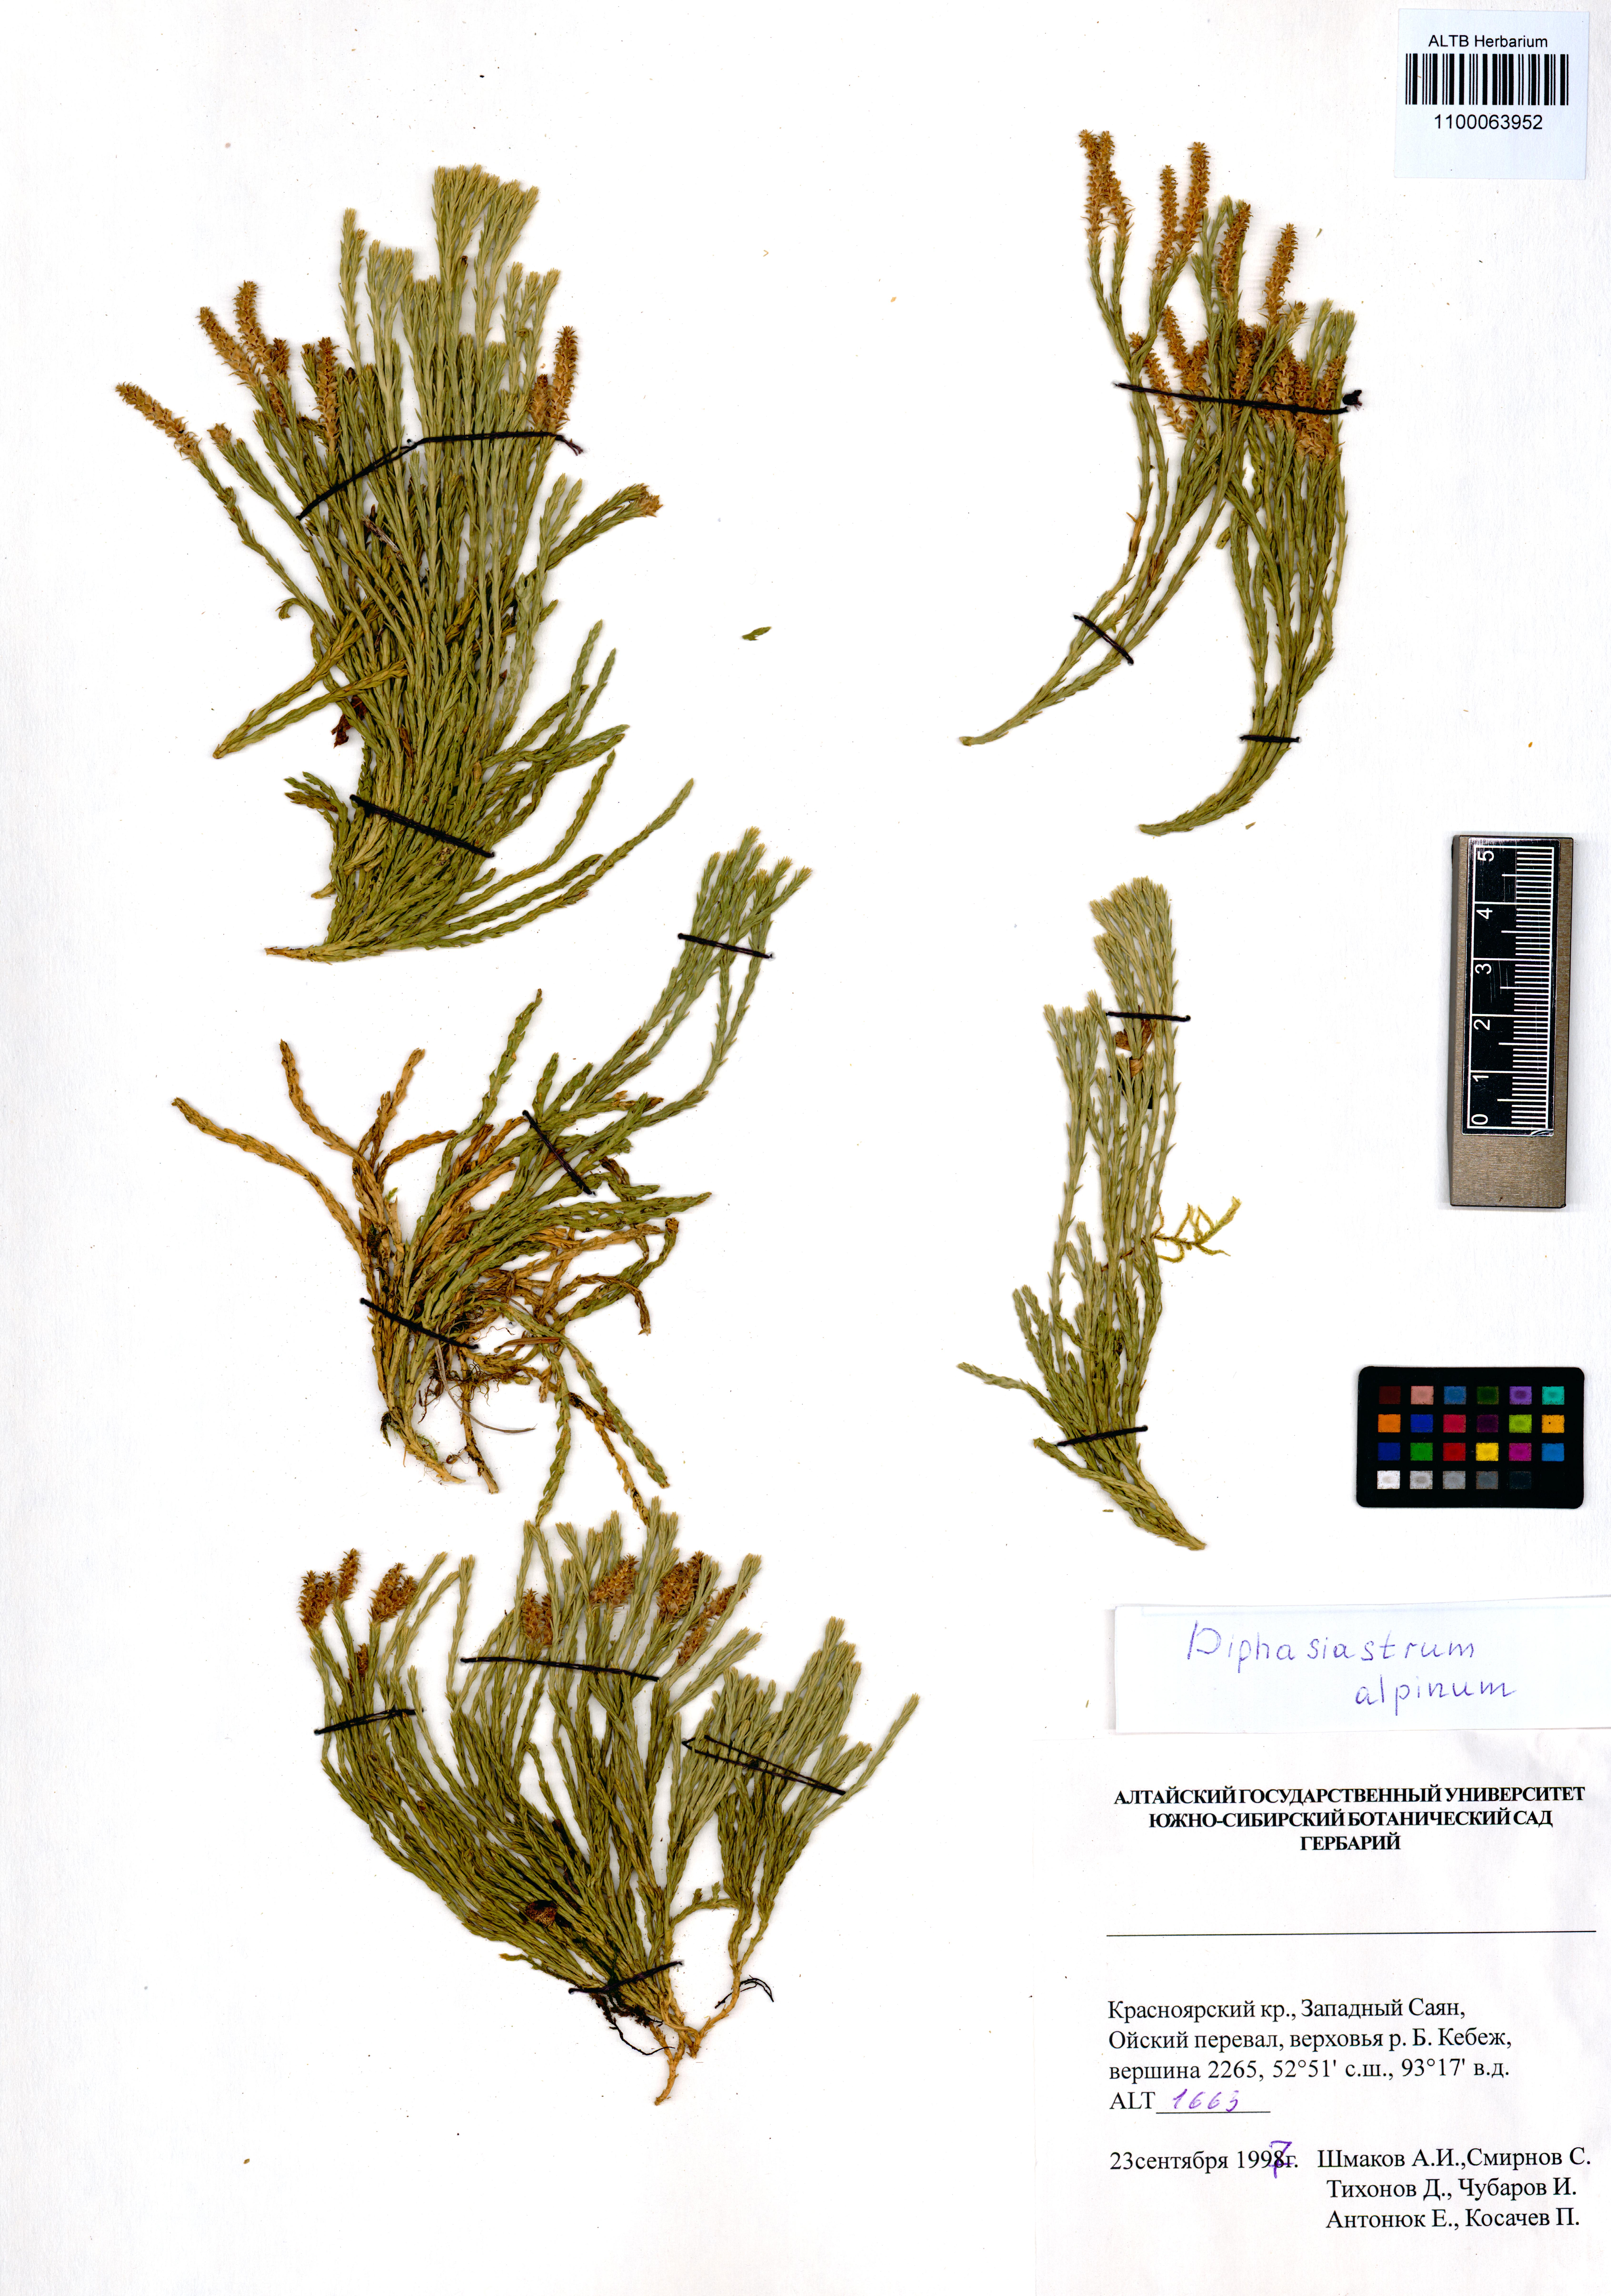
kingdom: Plantae
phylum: Tracheophyta
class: Lycopodiopsida
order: Lycopodiales
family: Lycopodiaceae
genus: Diphasiastrum
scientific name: Diphasiastrum alpinum
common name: Alpine clubmoss
